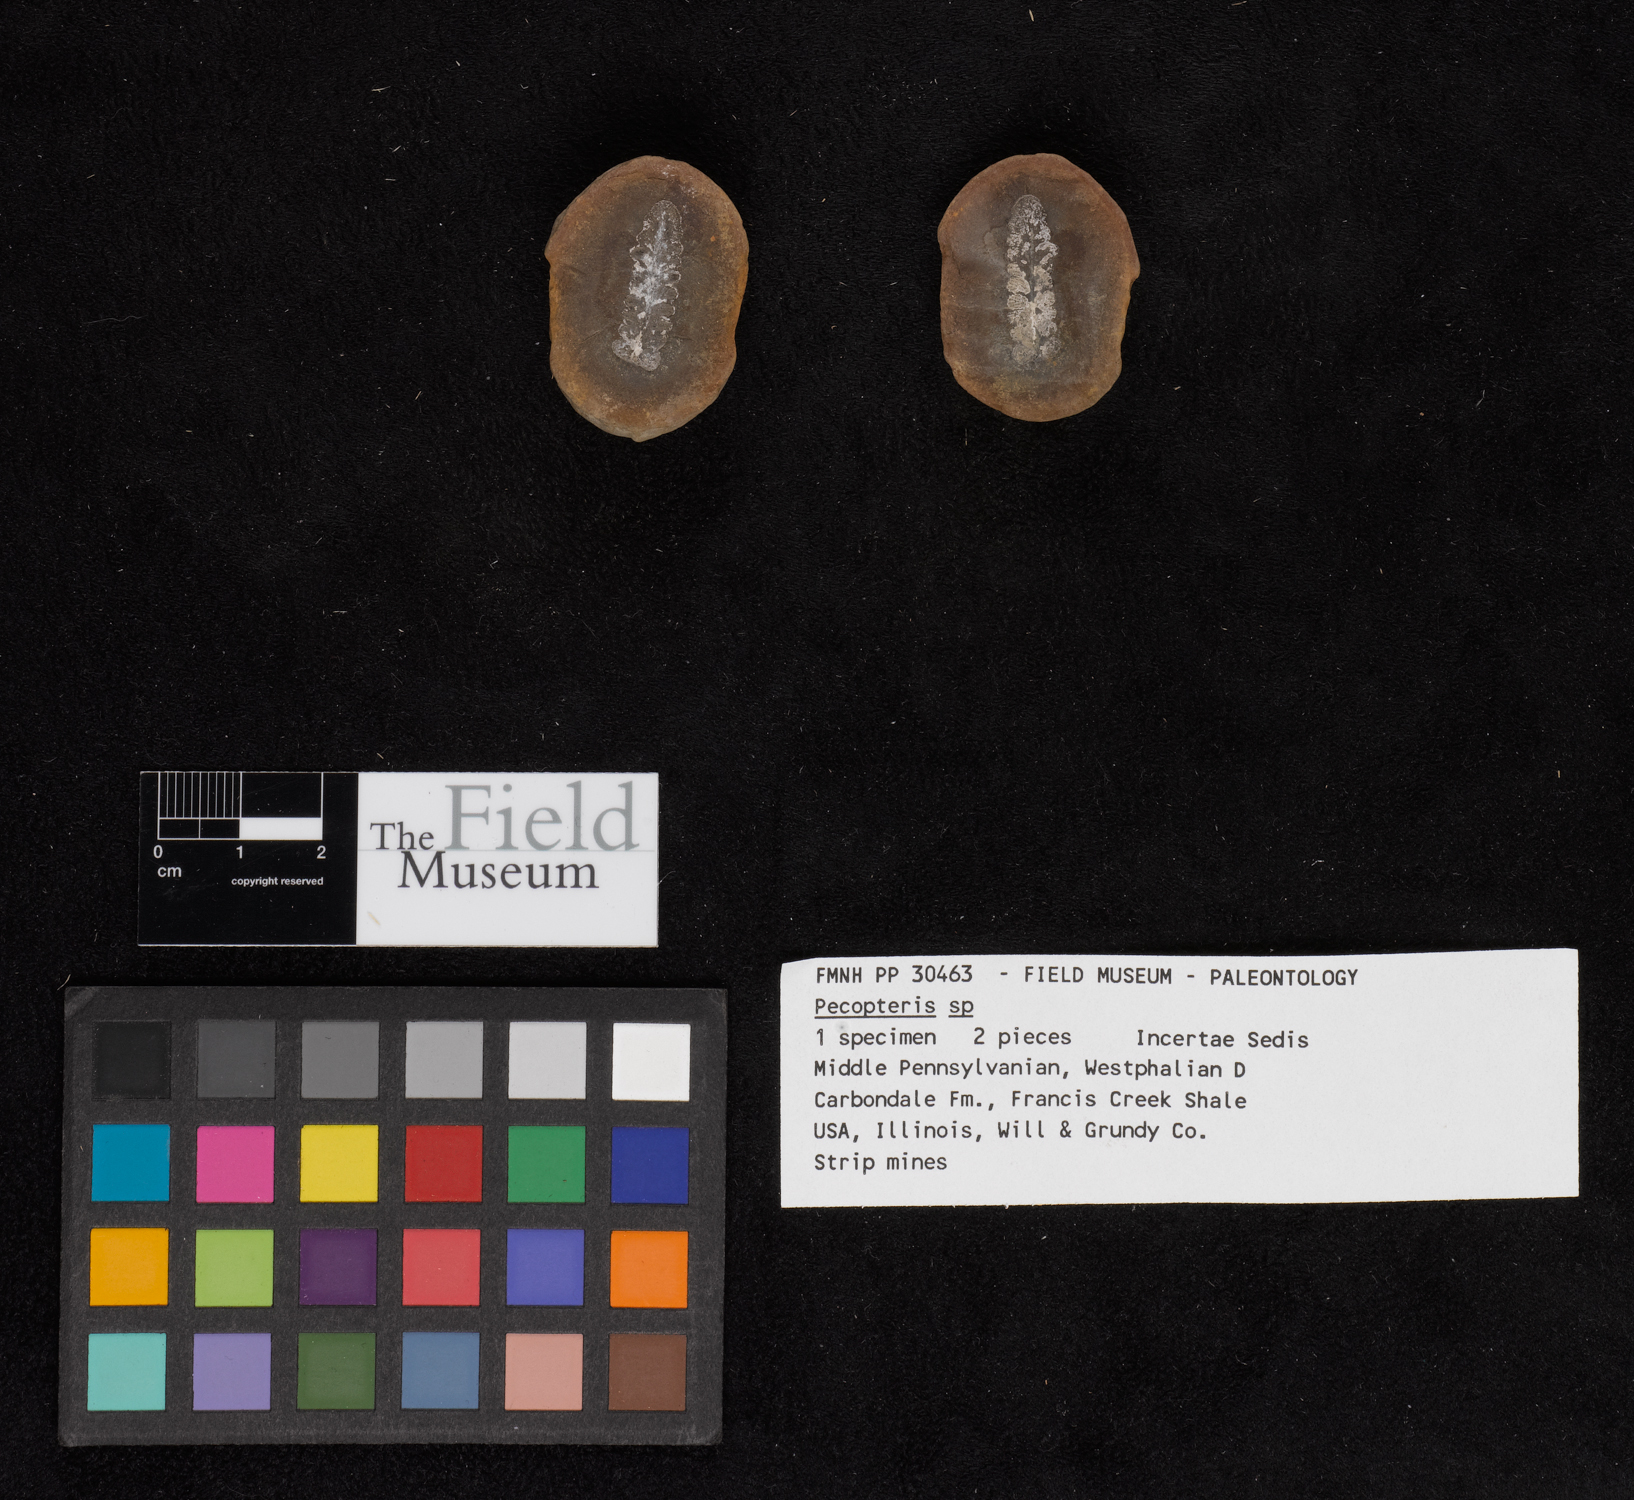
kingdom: Plantae
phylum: Tracheophyta
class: Polypodiopsida
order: Marattiales
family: Asterothecaceae
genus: Pecopteris
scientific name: Pecopteris
